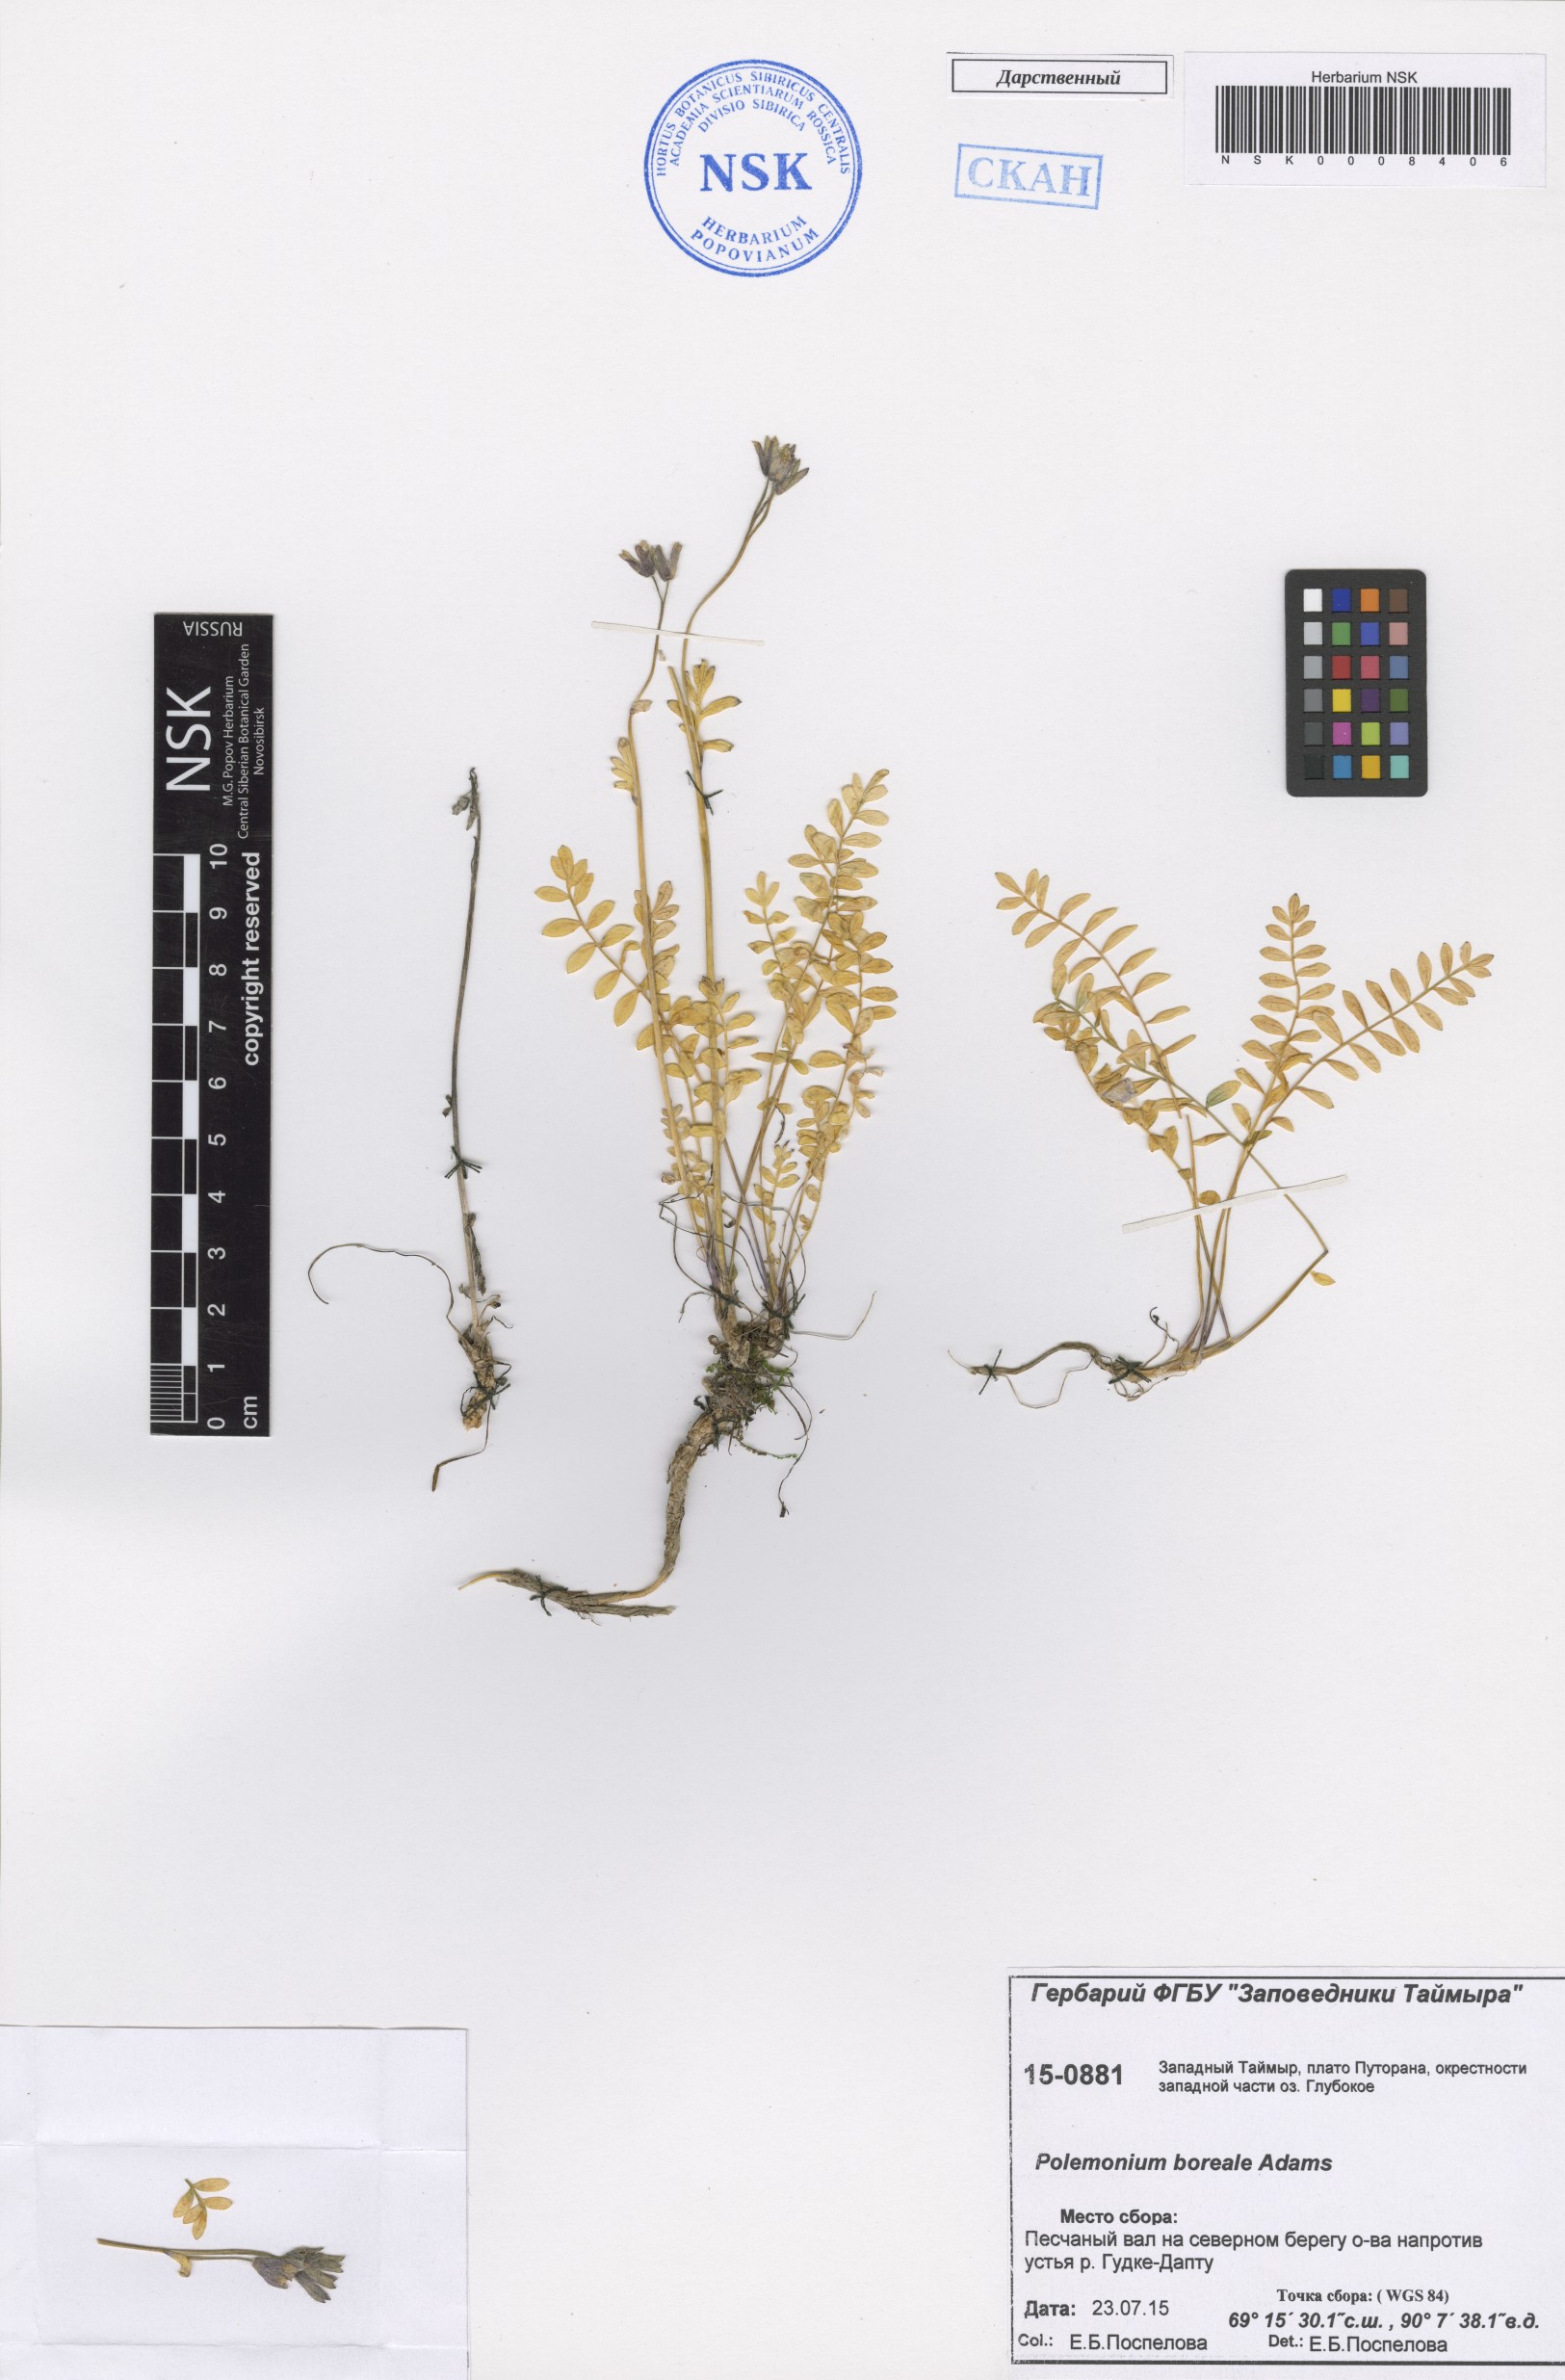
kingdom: Plantae
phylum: Tracheophyta
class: Magnoliopsida
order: Ericales
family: Polemoniaceae
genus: Polemonium
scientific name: Polemonium boreale
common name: Boreal jacob's-ladder
